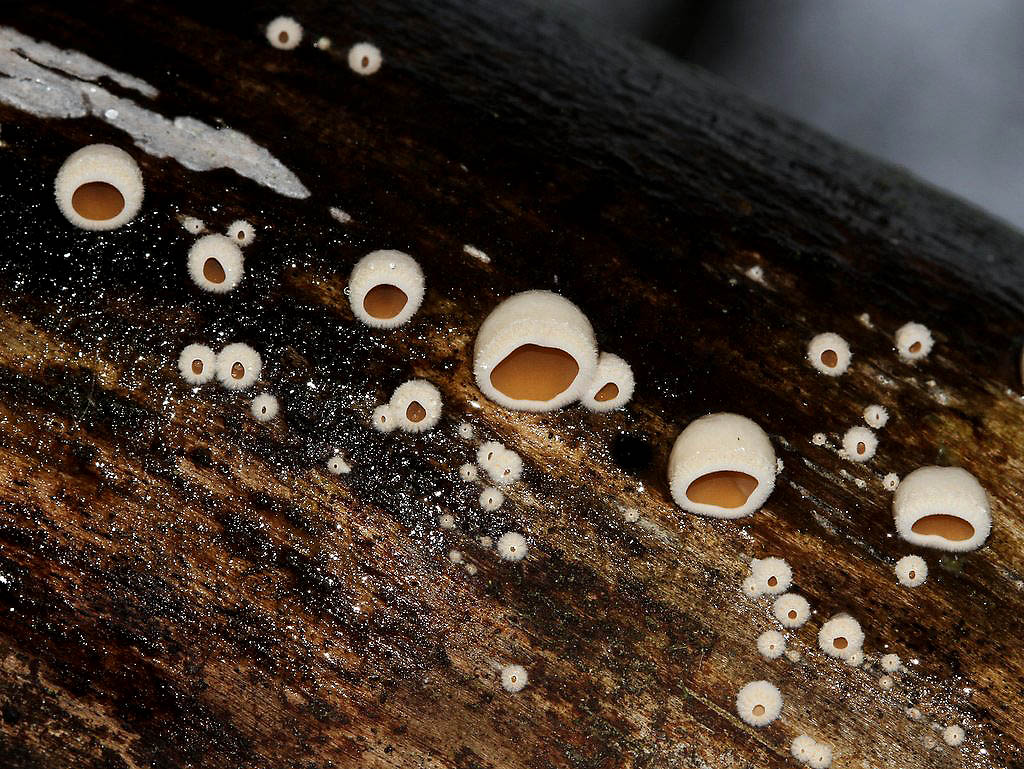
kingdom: Fungi
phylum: Basidiomycota
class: Agaricomycetes
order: Agaricales
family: Schizophyllaceae
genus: Schizophyllum
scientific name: Schizophyllum amplum
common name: poppel-hængeøre
